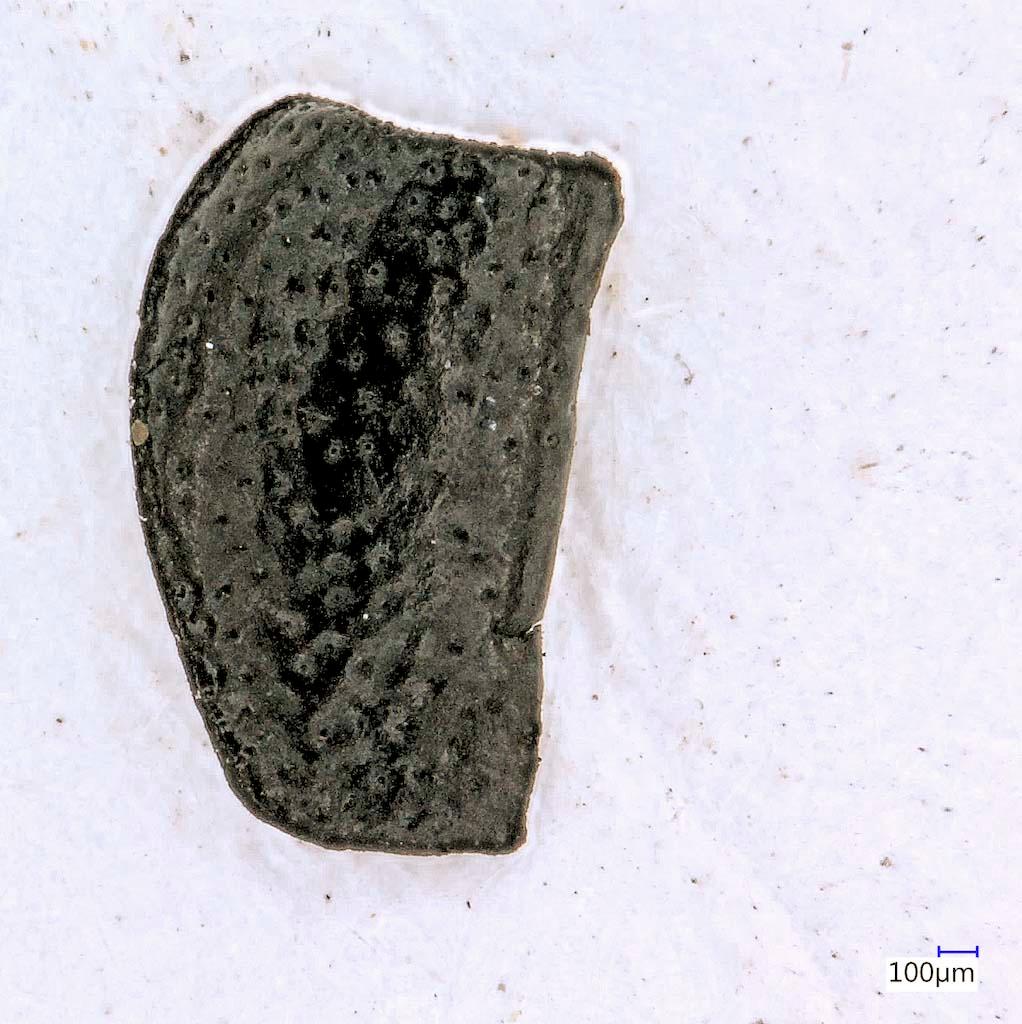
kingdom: Animalia
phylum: Arthropoda
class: Insecta
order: Coleoptera
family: Carabidae
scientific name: Carabidae
